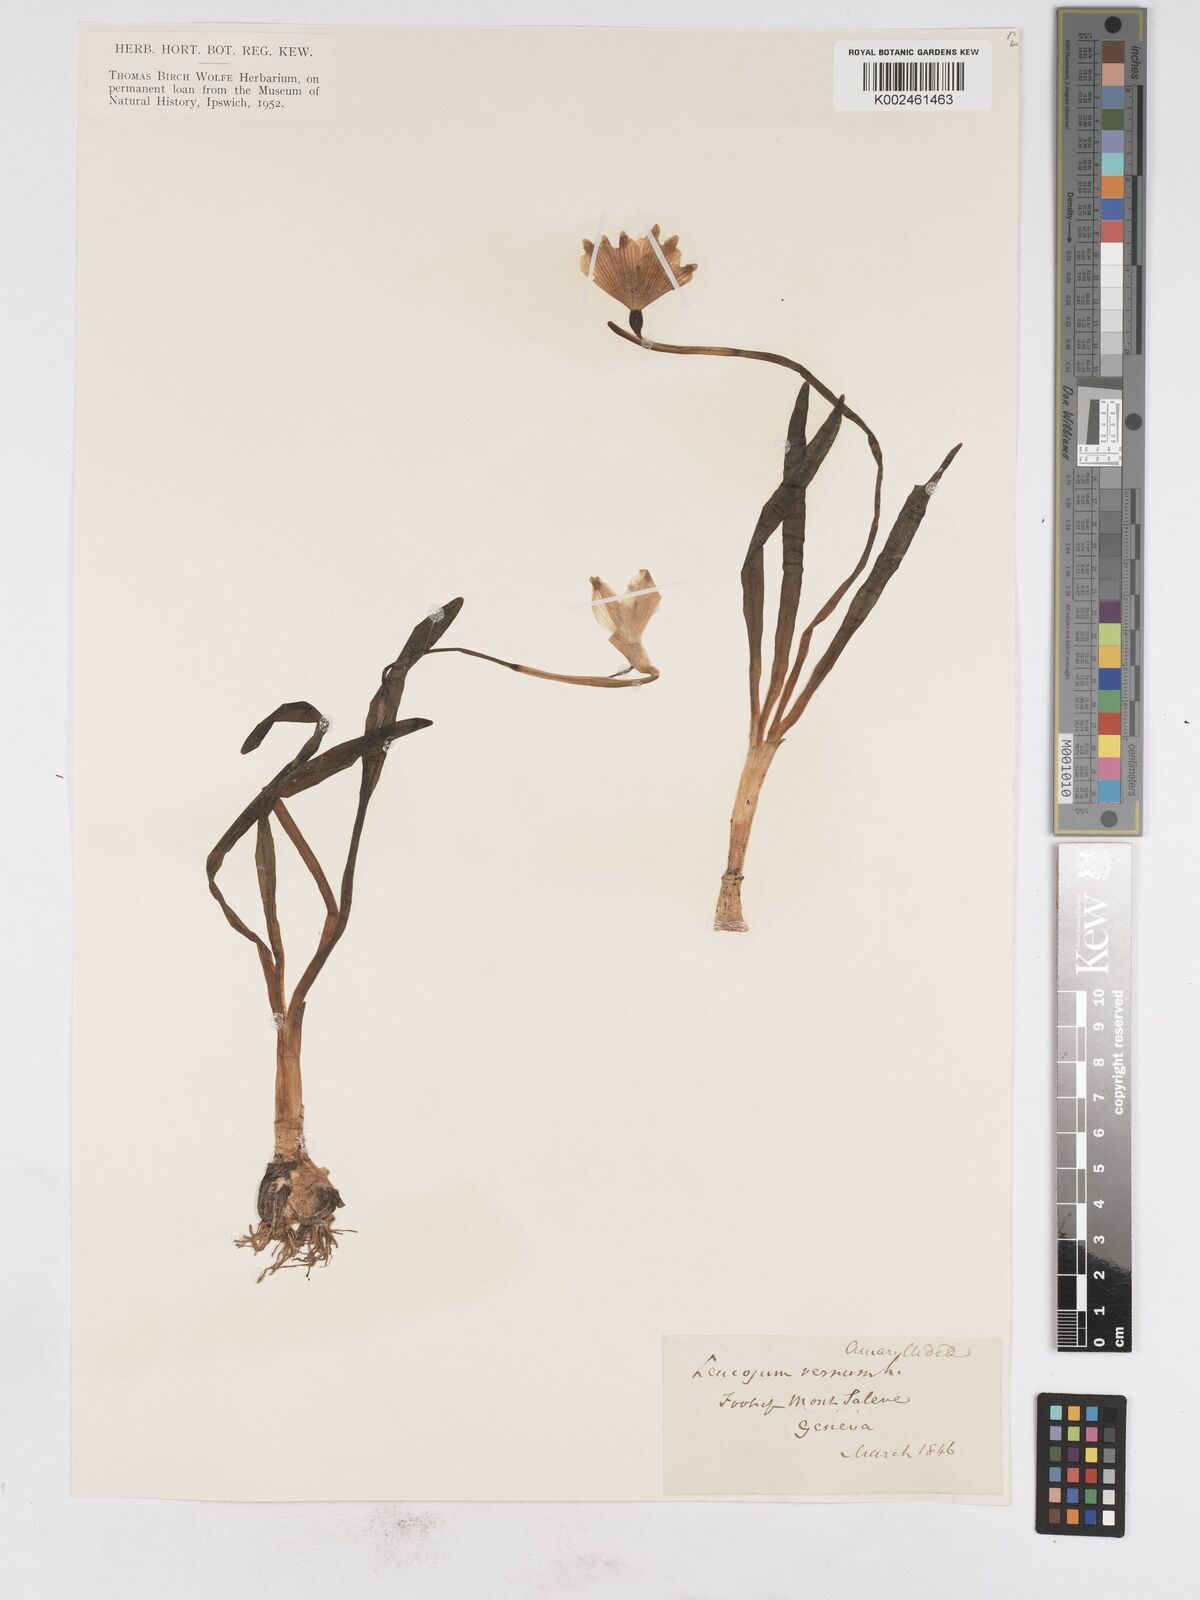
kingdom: Plantae
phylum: Tracheophyta
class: Liliopsida
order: Asparagales
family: Amaryllidaceae
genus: Leucojum
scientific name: Leucojum vernum
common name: Spring snowflake
